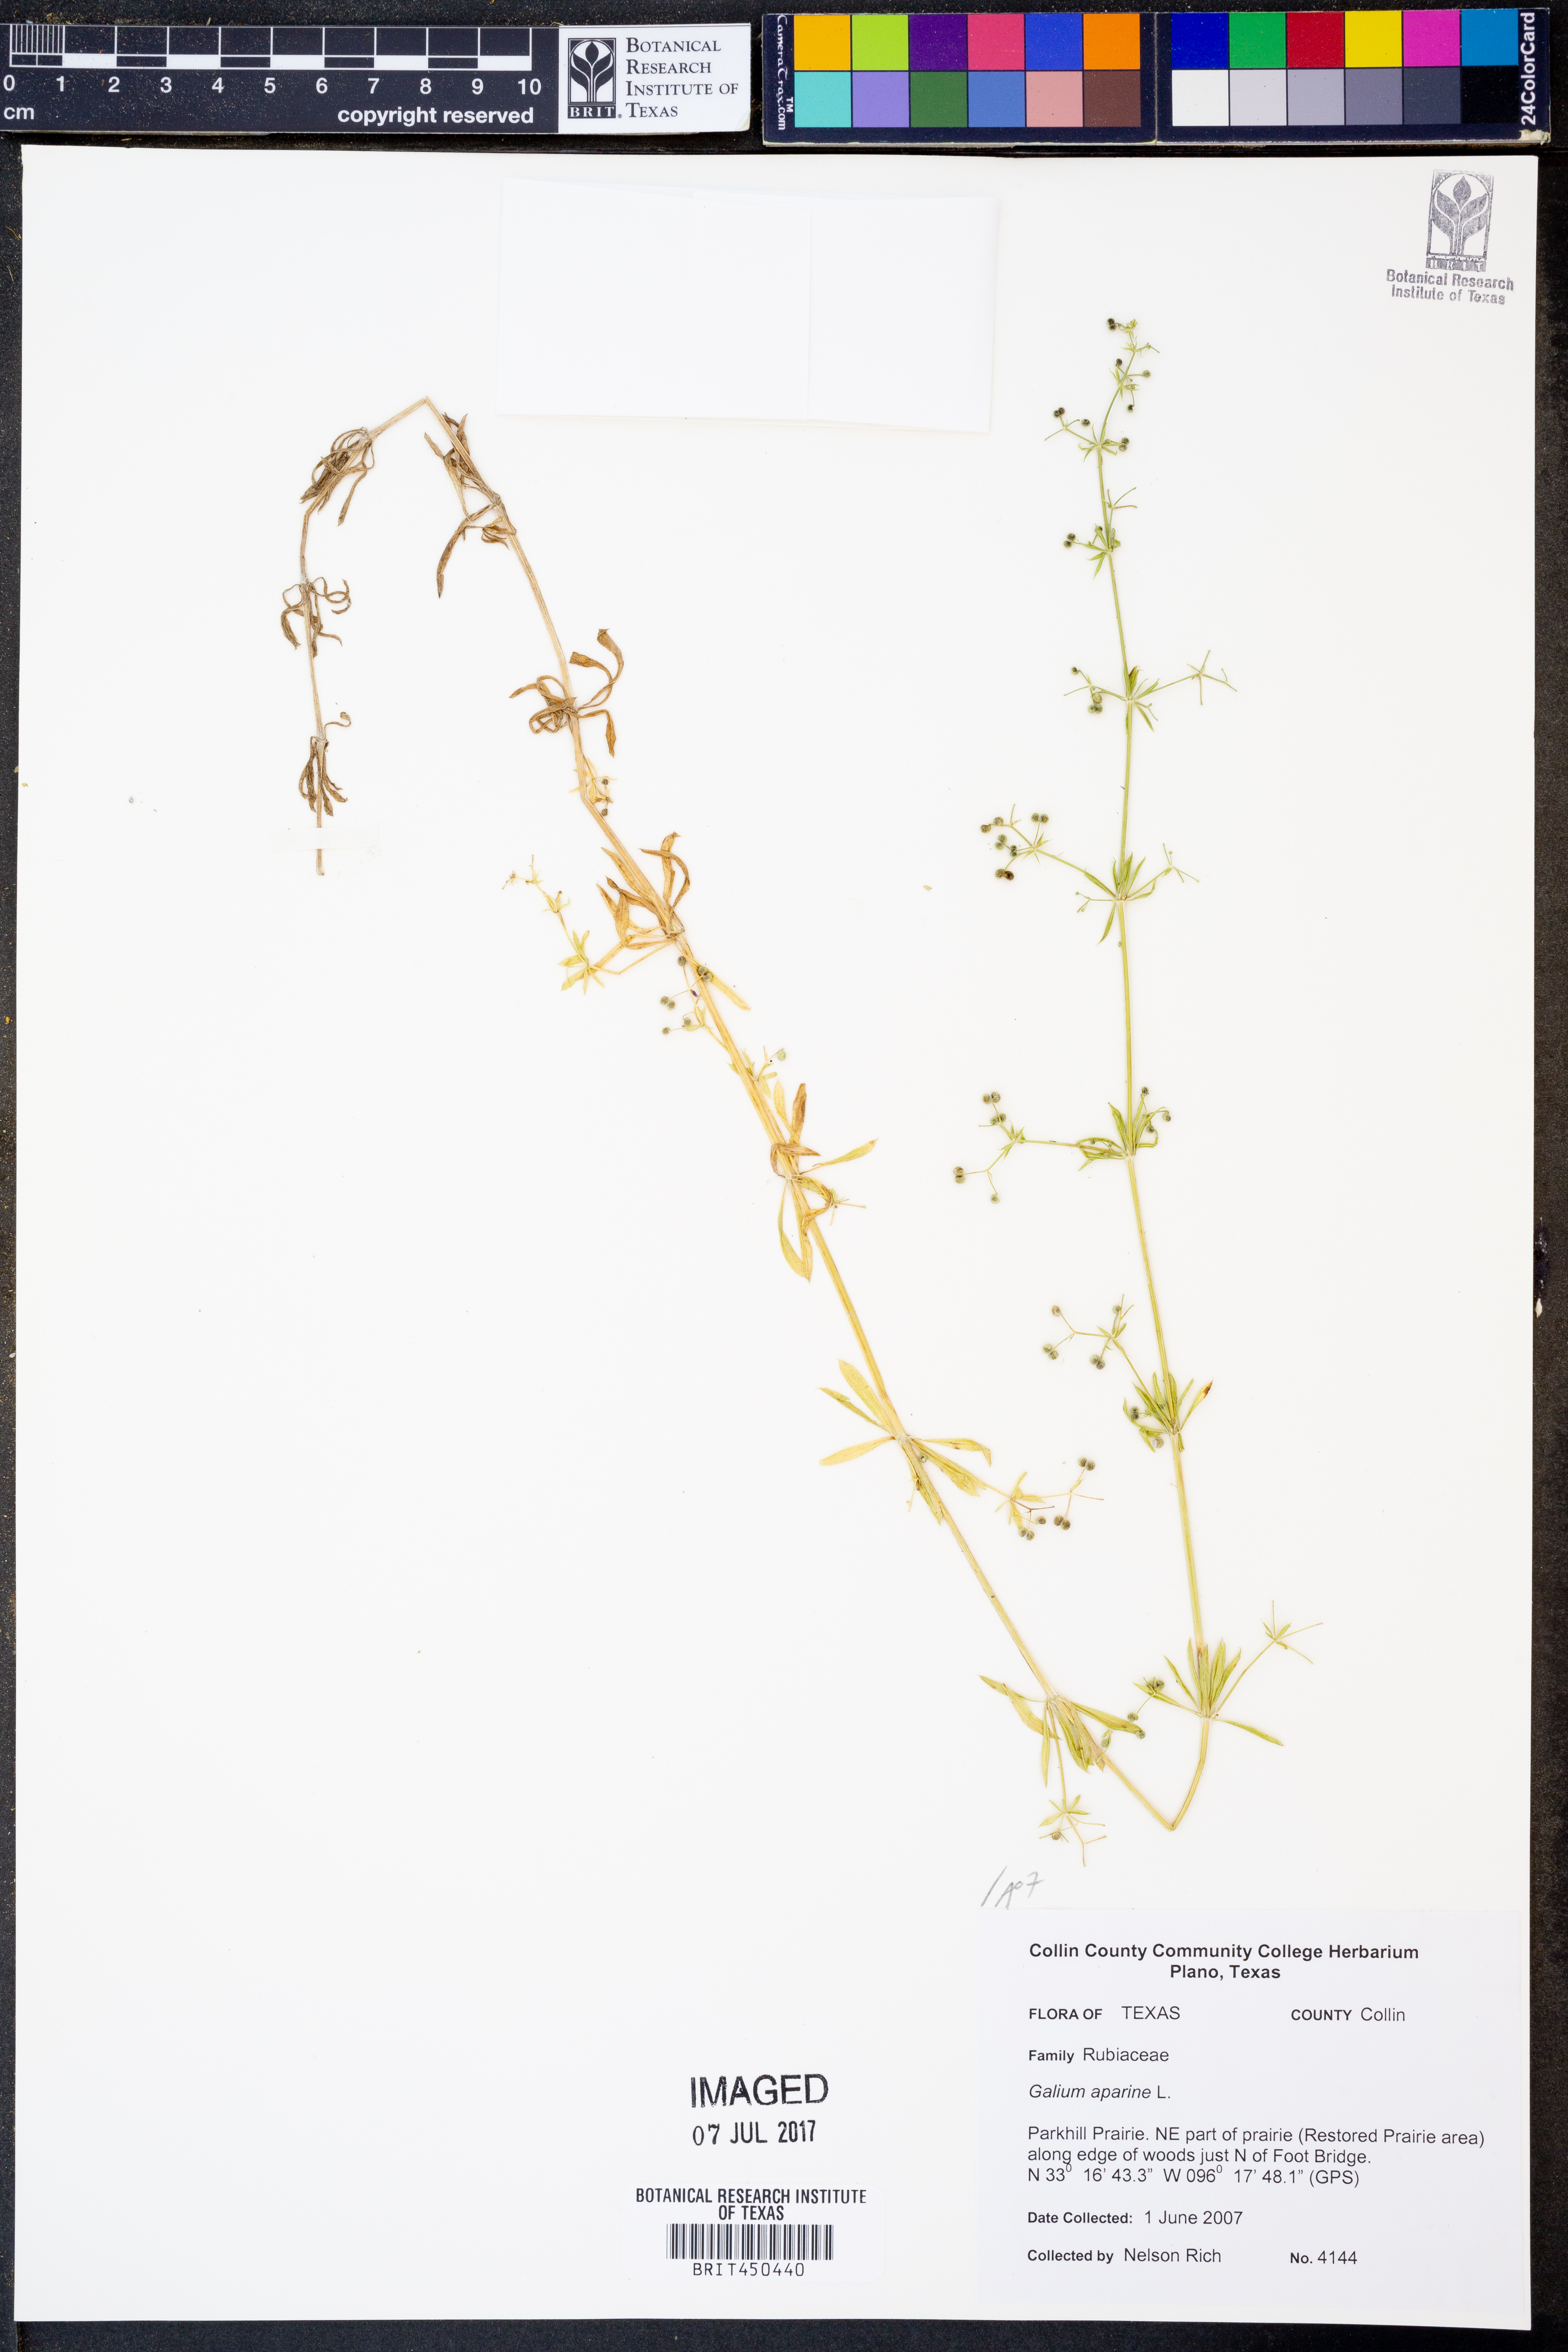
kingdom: Plantae
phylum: Tracheophyta
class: Magnoliopsida
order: Gentianales
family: Rubiaceae
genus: Galium
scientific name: Galium aparine
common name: Cleavers
